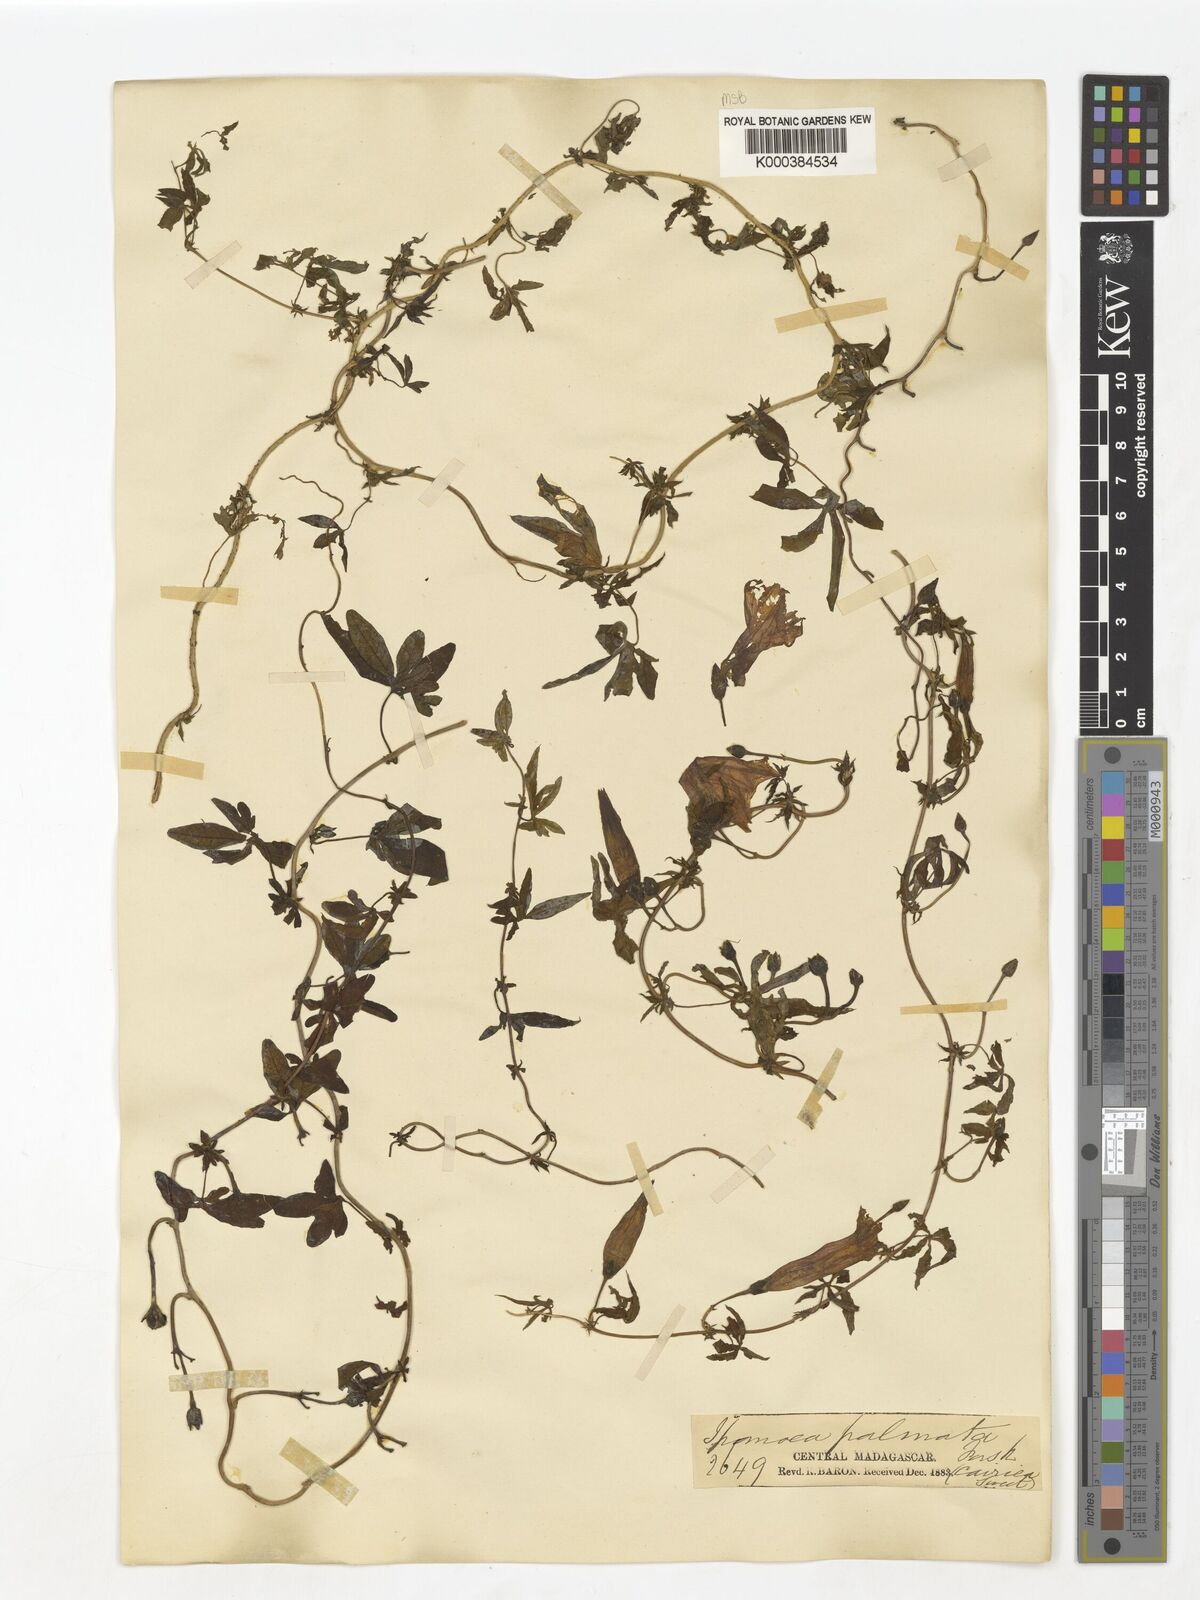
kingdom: Plantae
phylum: Tracheophyta
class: Magnoliopsida
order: Solanales
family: Convolvulaceae
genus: Ipomoea
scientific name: Ipomoea cairica
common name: Mile a minute vine
